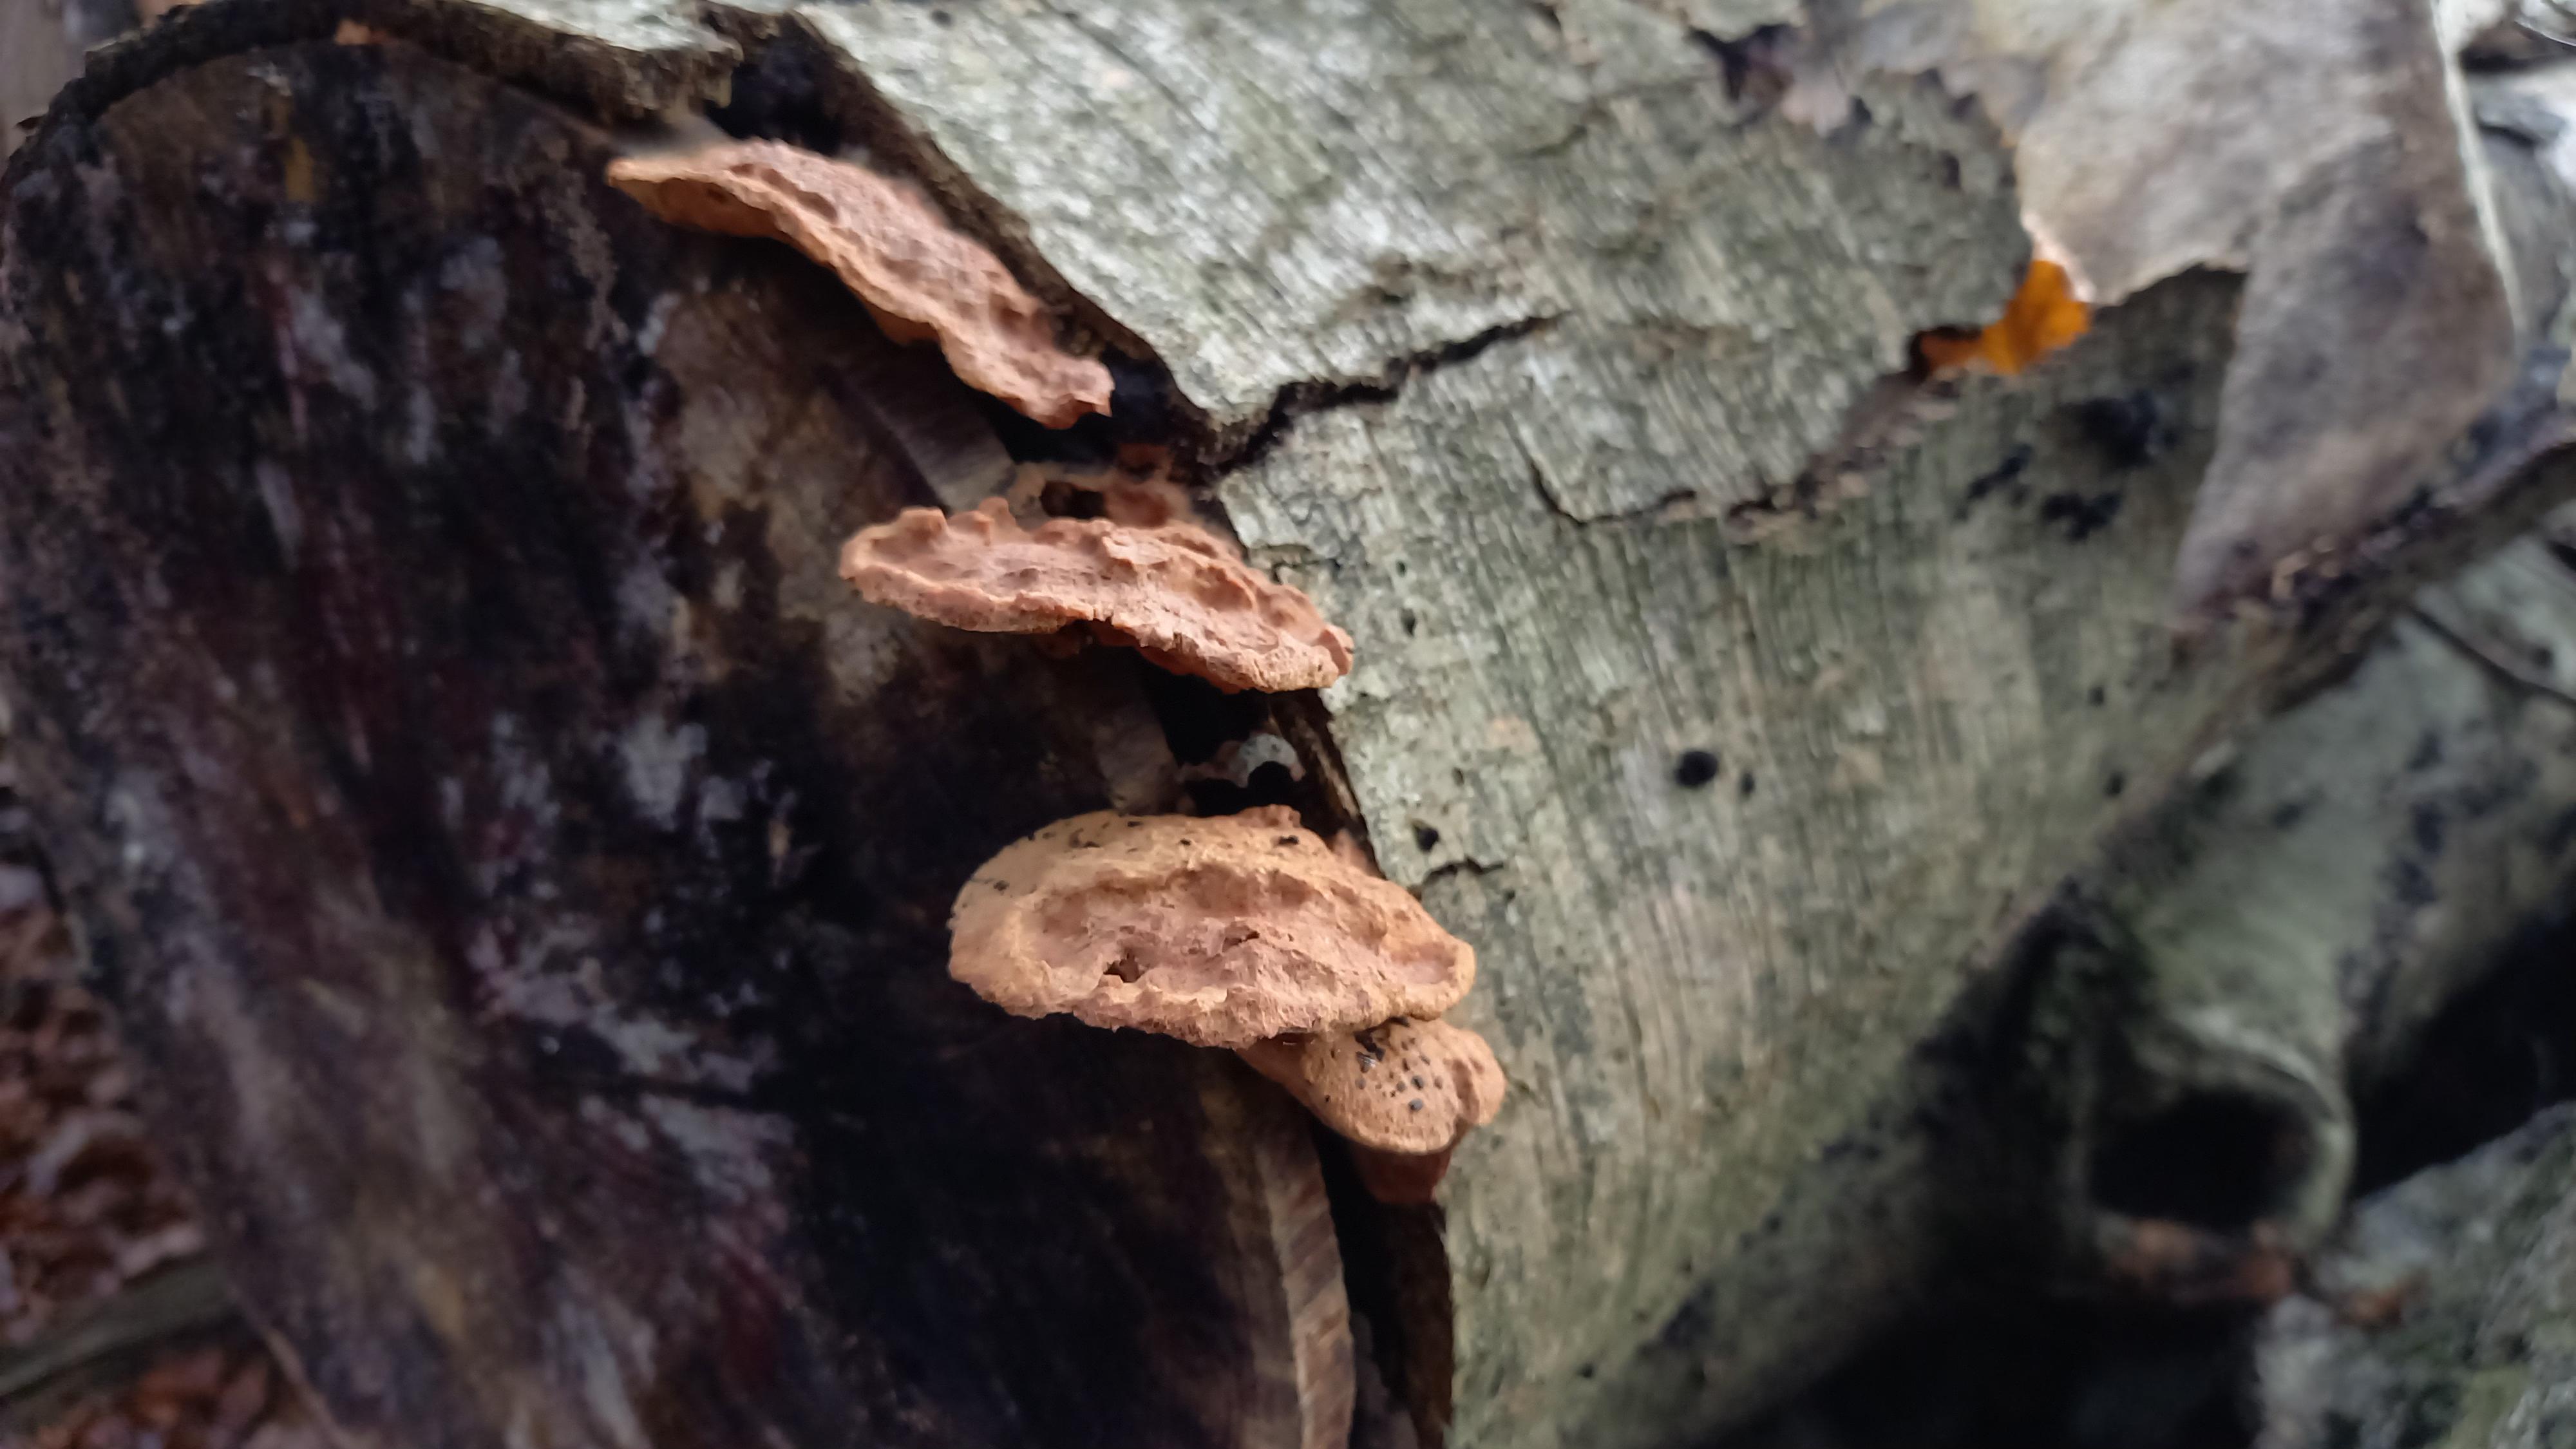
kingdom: Fungi
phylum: Basidiomycota
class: Agaricomycetes
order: Polyporales
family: Phanerochaetaceae
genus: Hapalopilus
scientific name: Hapalopilus rutilans
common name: rødlig okkerporesvamp
